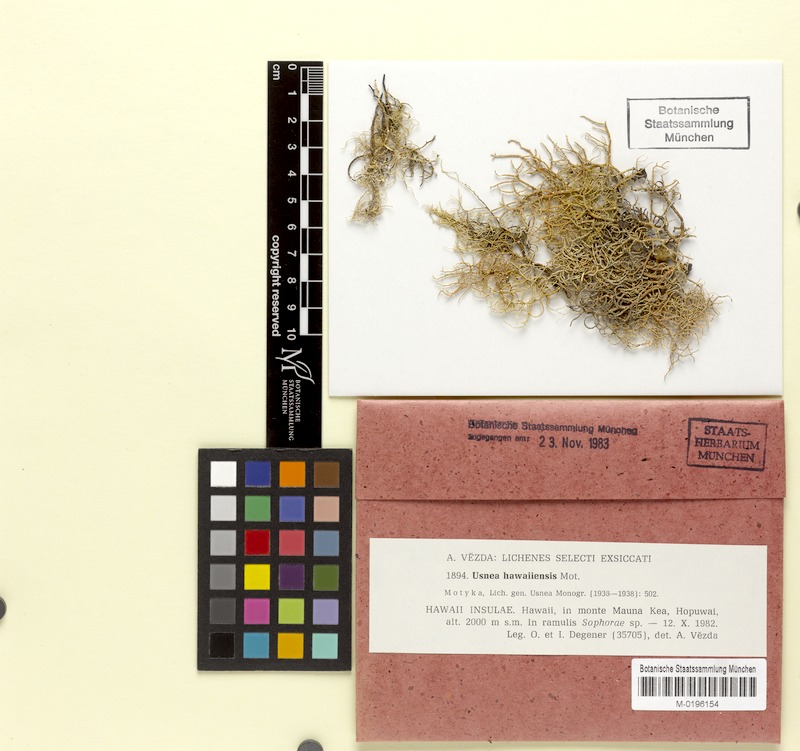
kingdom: Fungi
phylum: Ascomycota
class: Lecanoromycetes
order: Lecanorales
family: Parmeliaceae
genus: Usnea
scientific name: Usnea hawaiiensis
